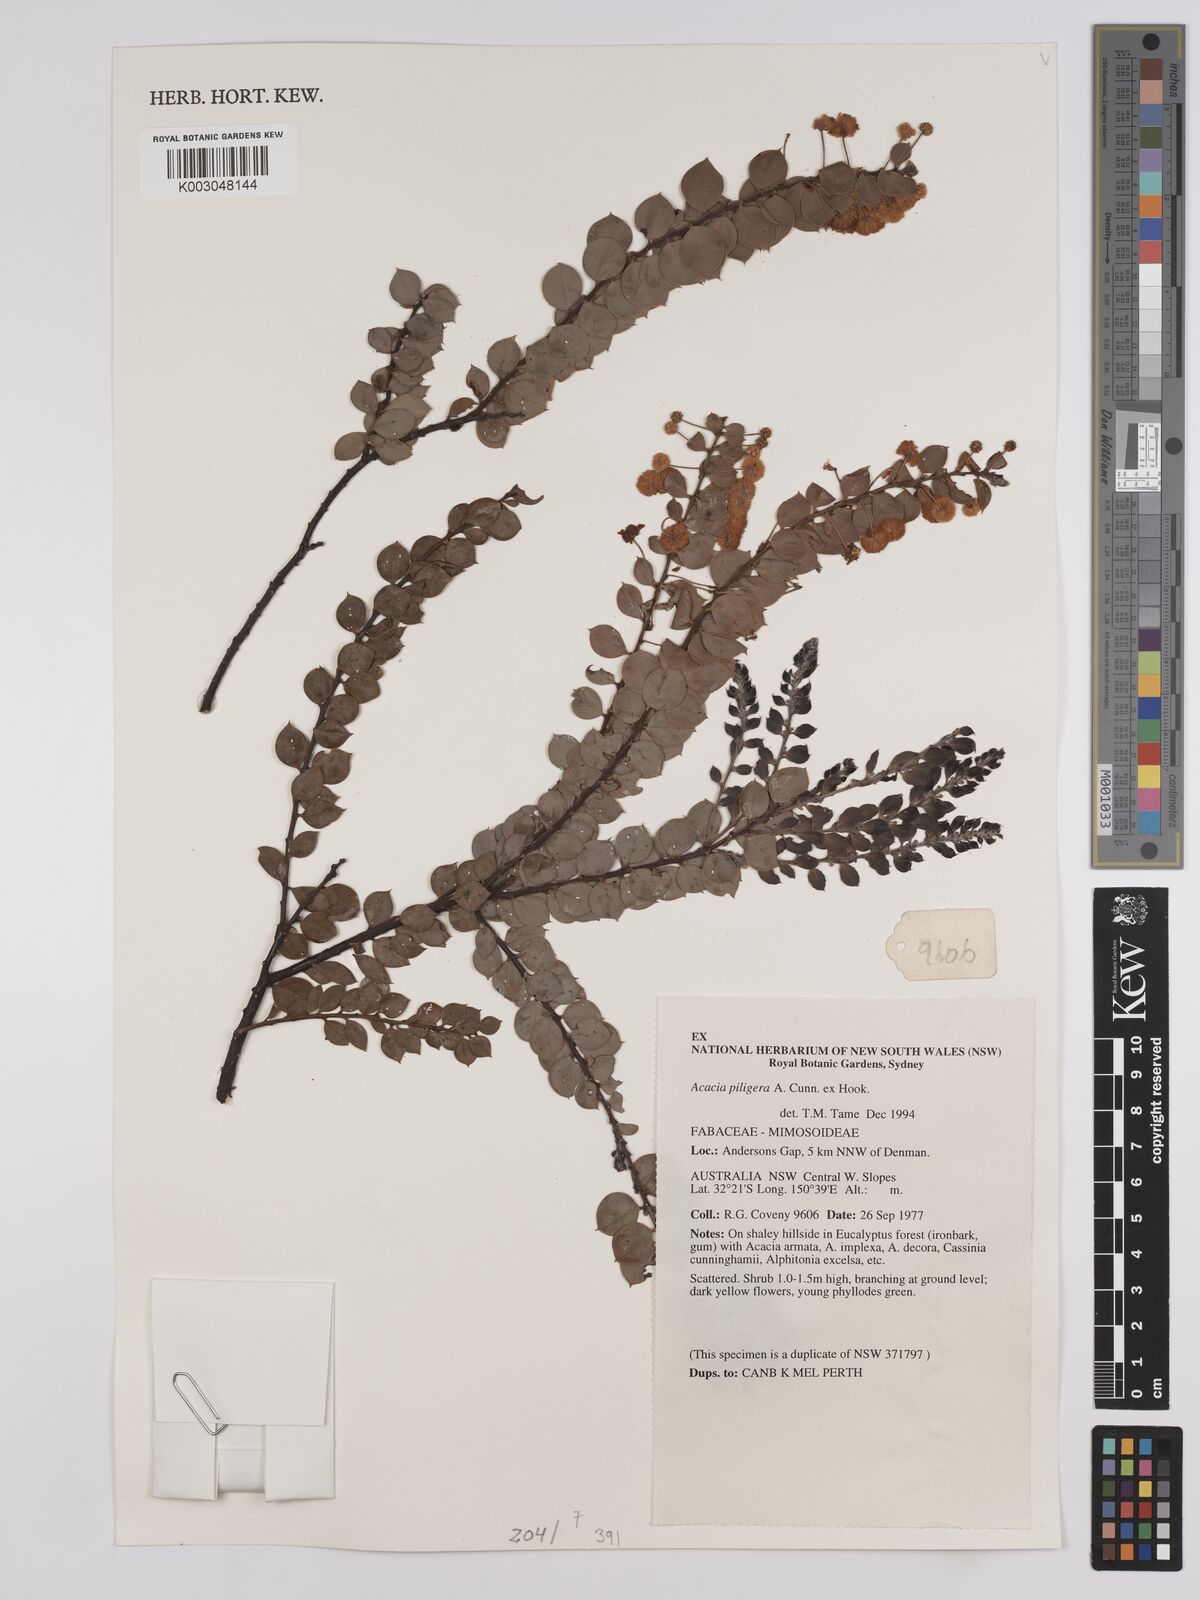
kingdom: Plantae
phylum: Tracheophyta
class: Magnoliopsida
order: Fabales
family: Fabaceae
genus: Acacia
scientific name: Acacia undulifolia
